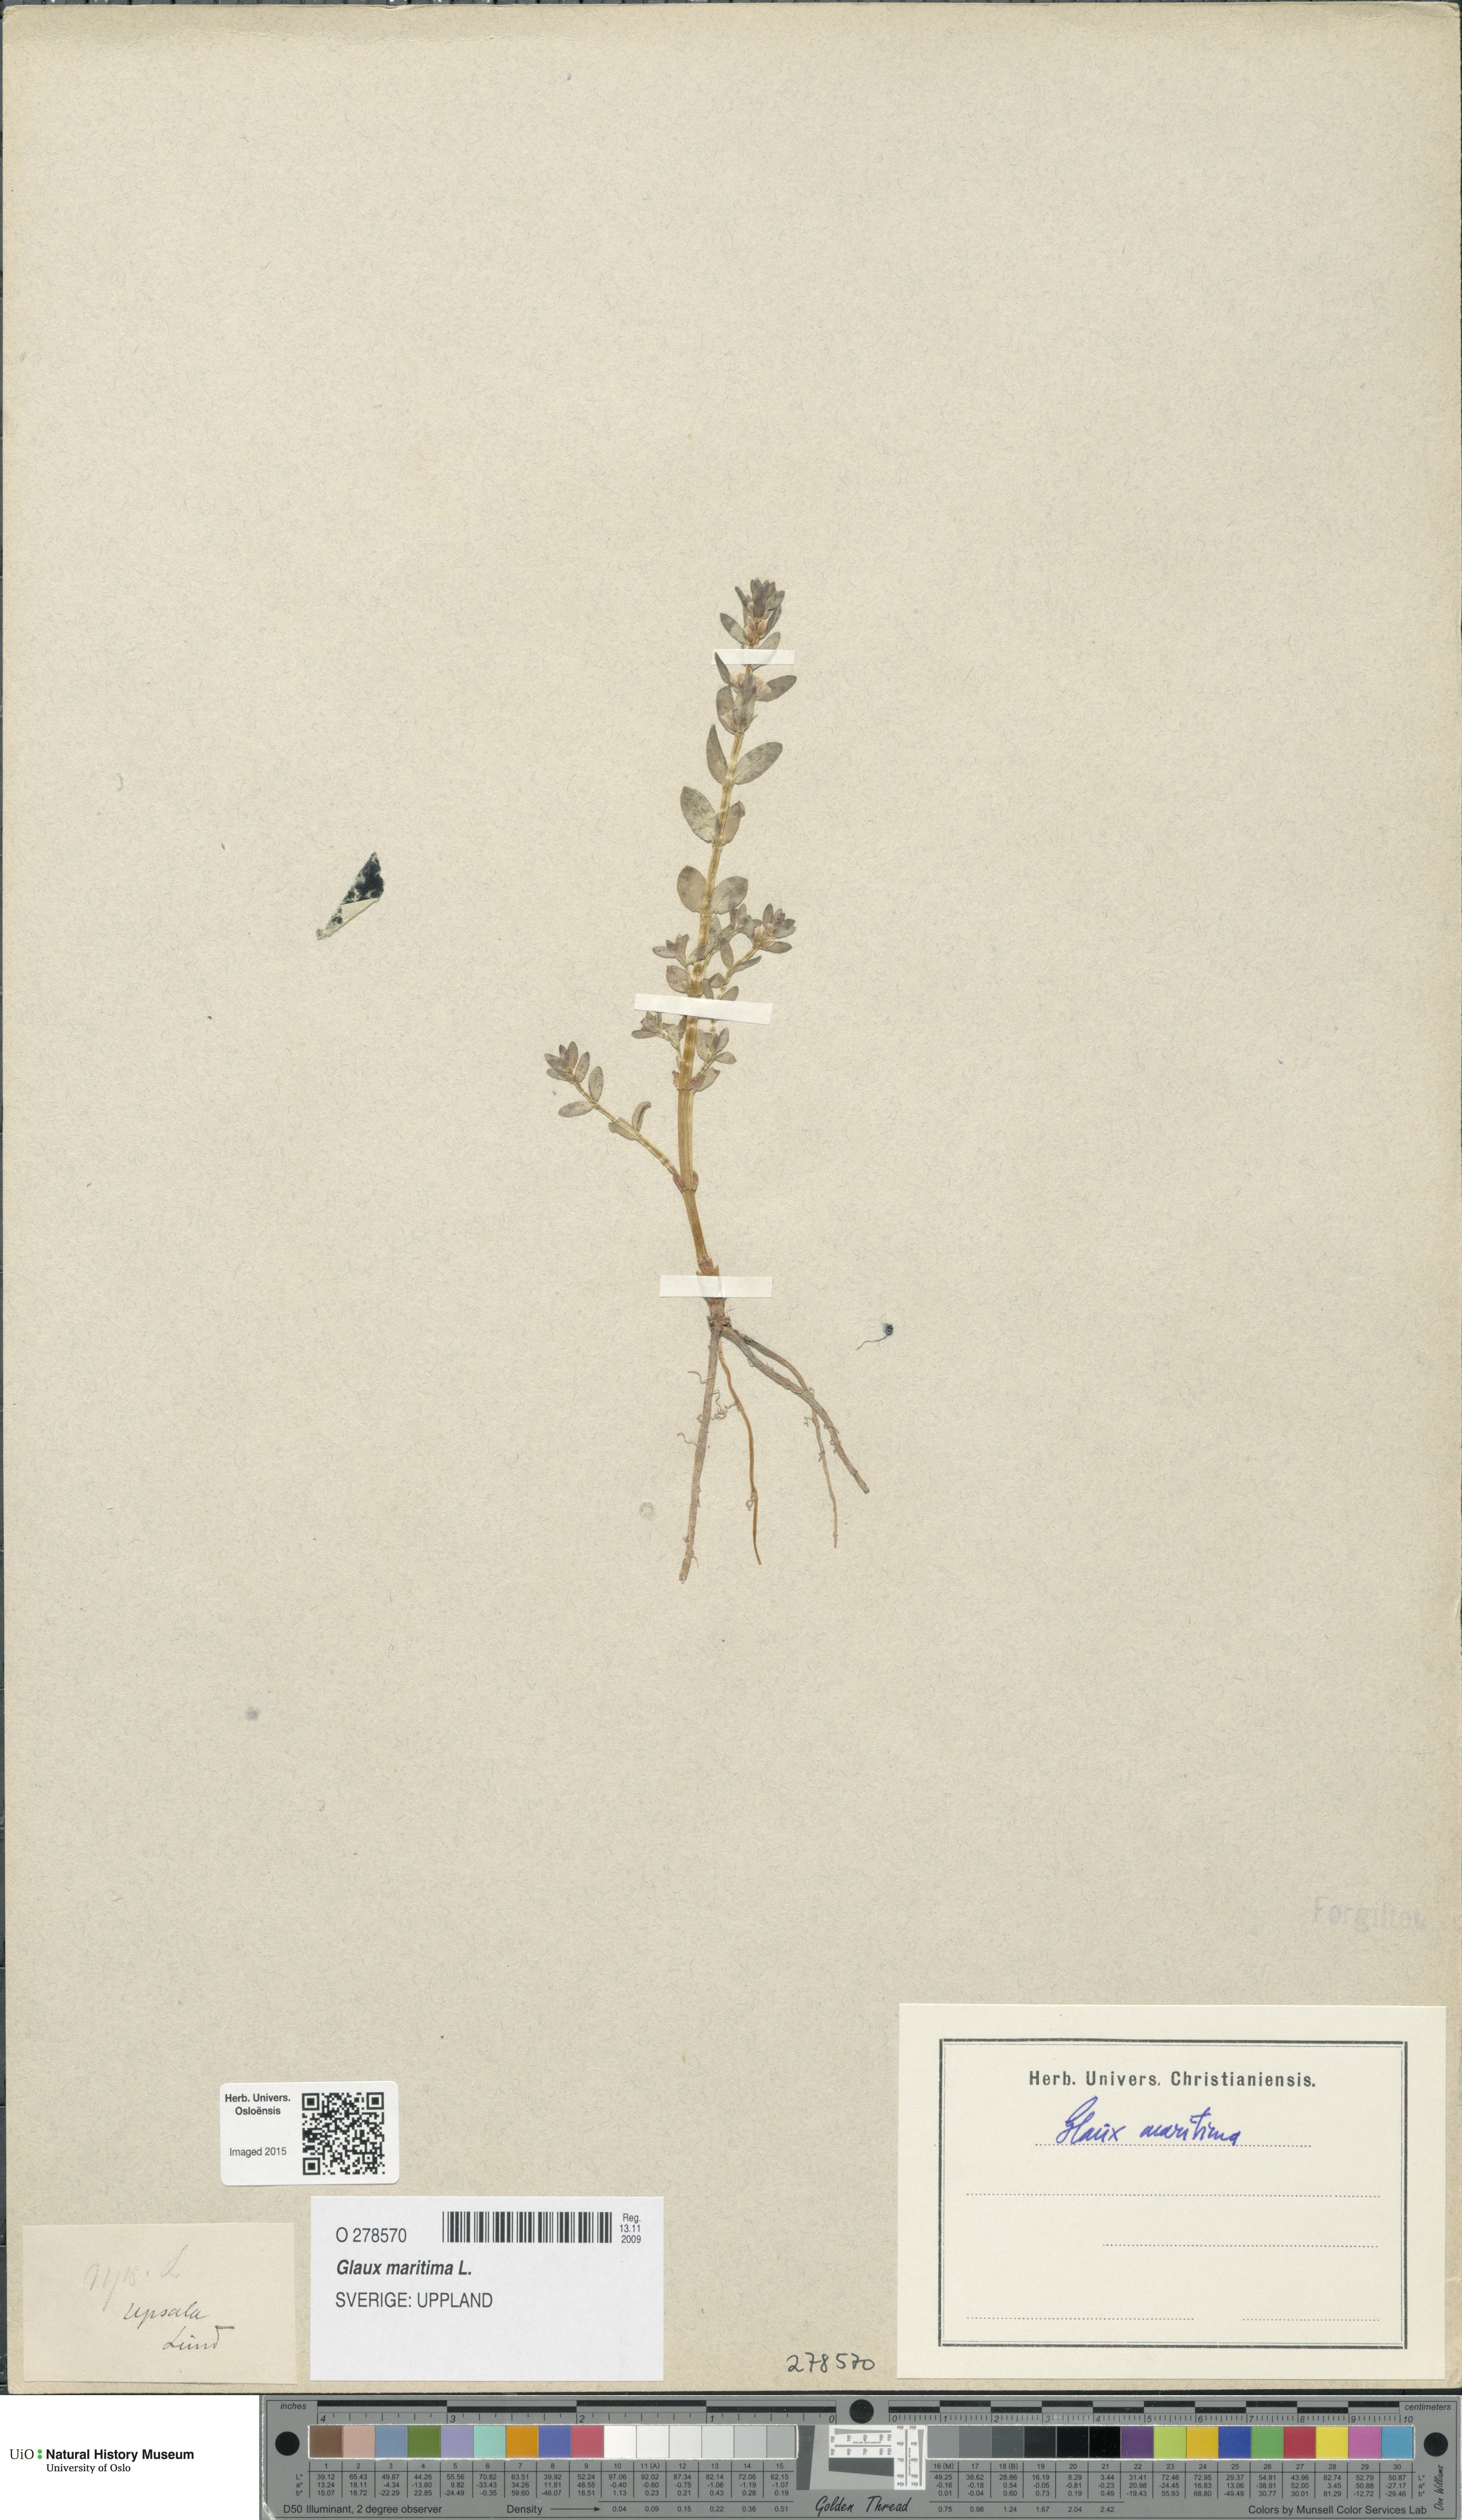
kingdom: Plantae
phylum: Tracheophyta
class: Magnoliopsida
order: Ericales
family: Primulaceae
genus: Lysimachia
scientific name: Lysimachia maritima
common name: Sea milkwort
